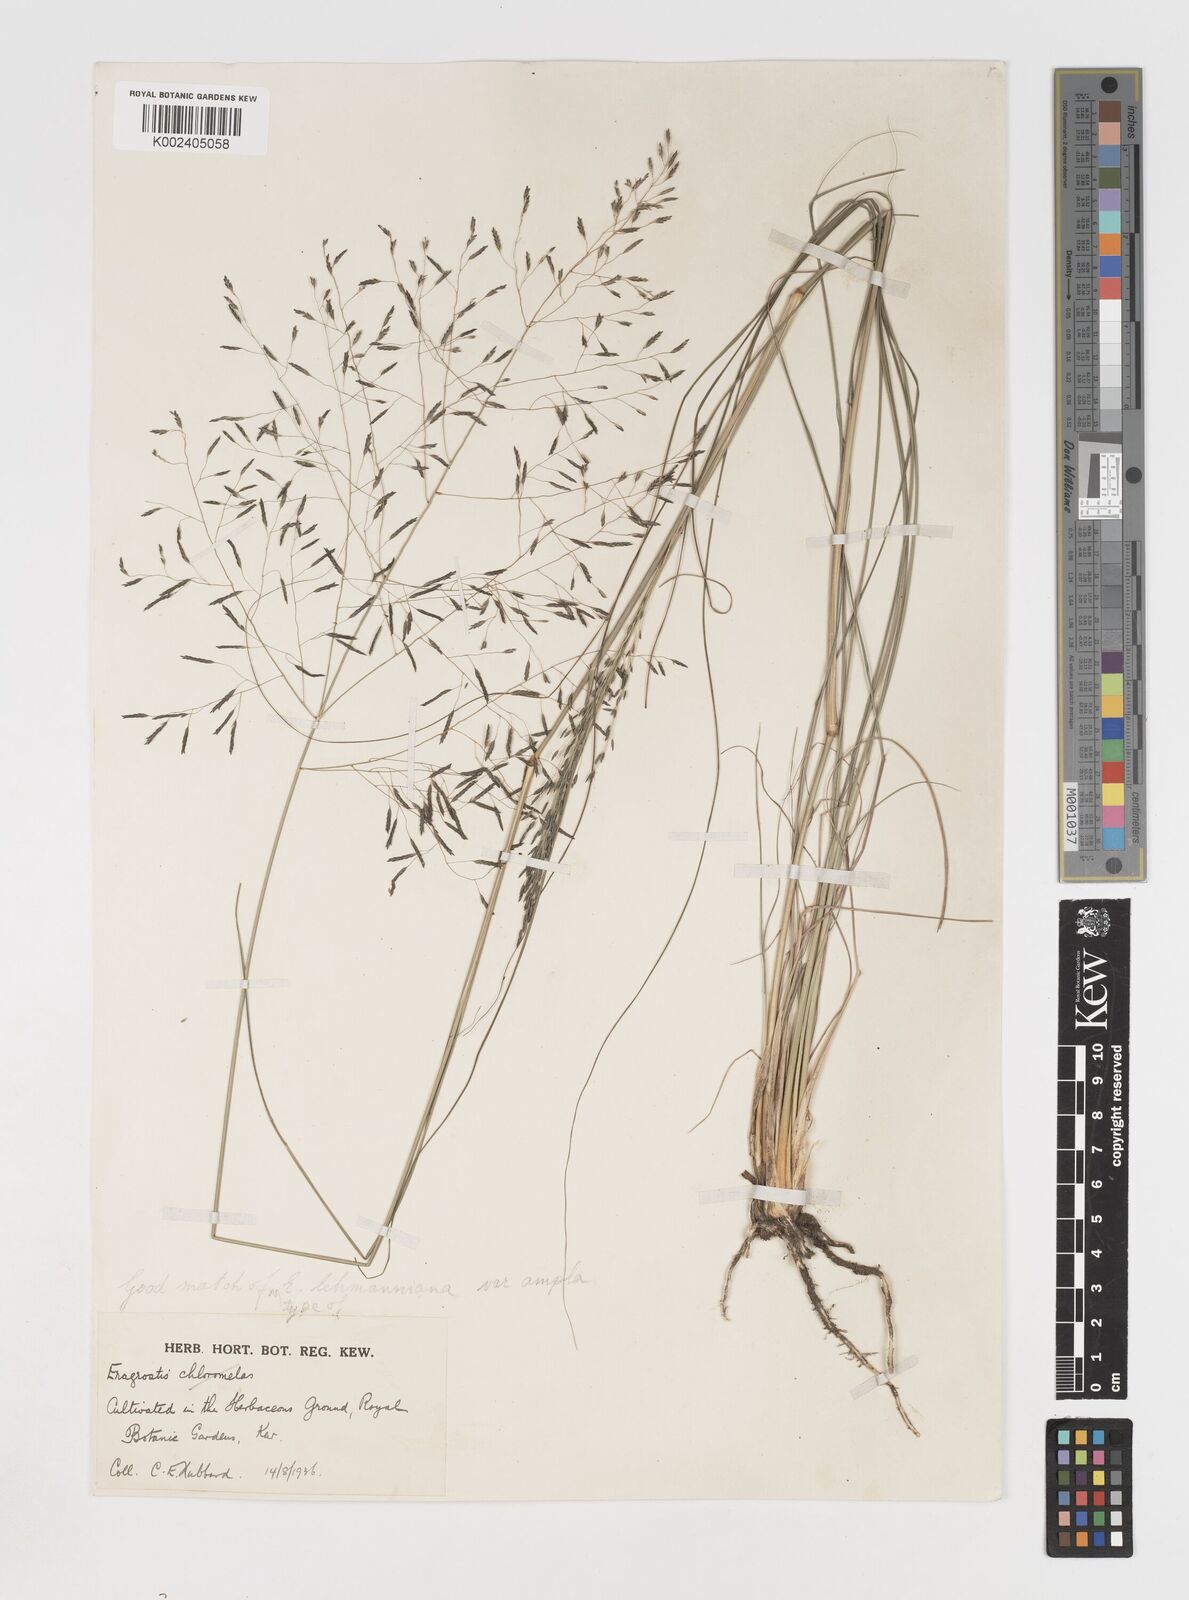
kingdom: Plantae
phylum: Tracheophyta
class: Liliopsida
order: Poales
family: Poaceae
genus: Eragrostis
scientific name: Eragrostis curvula
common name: African love-grass
